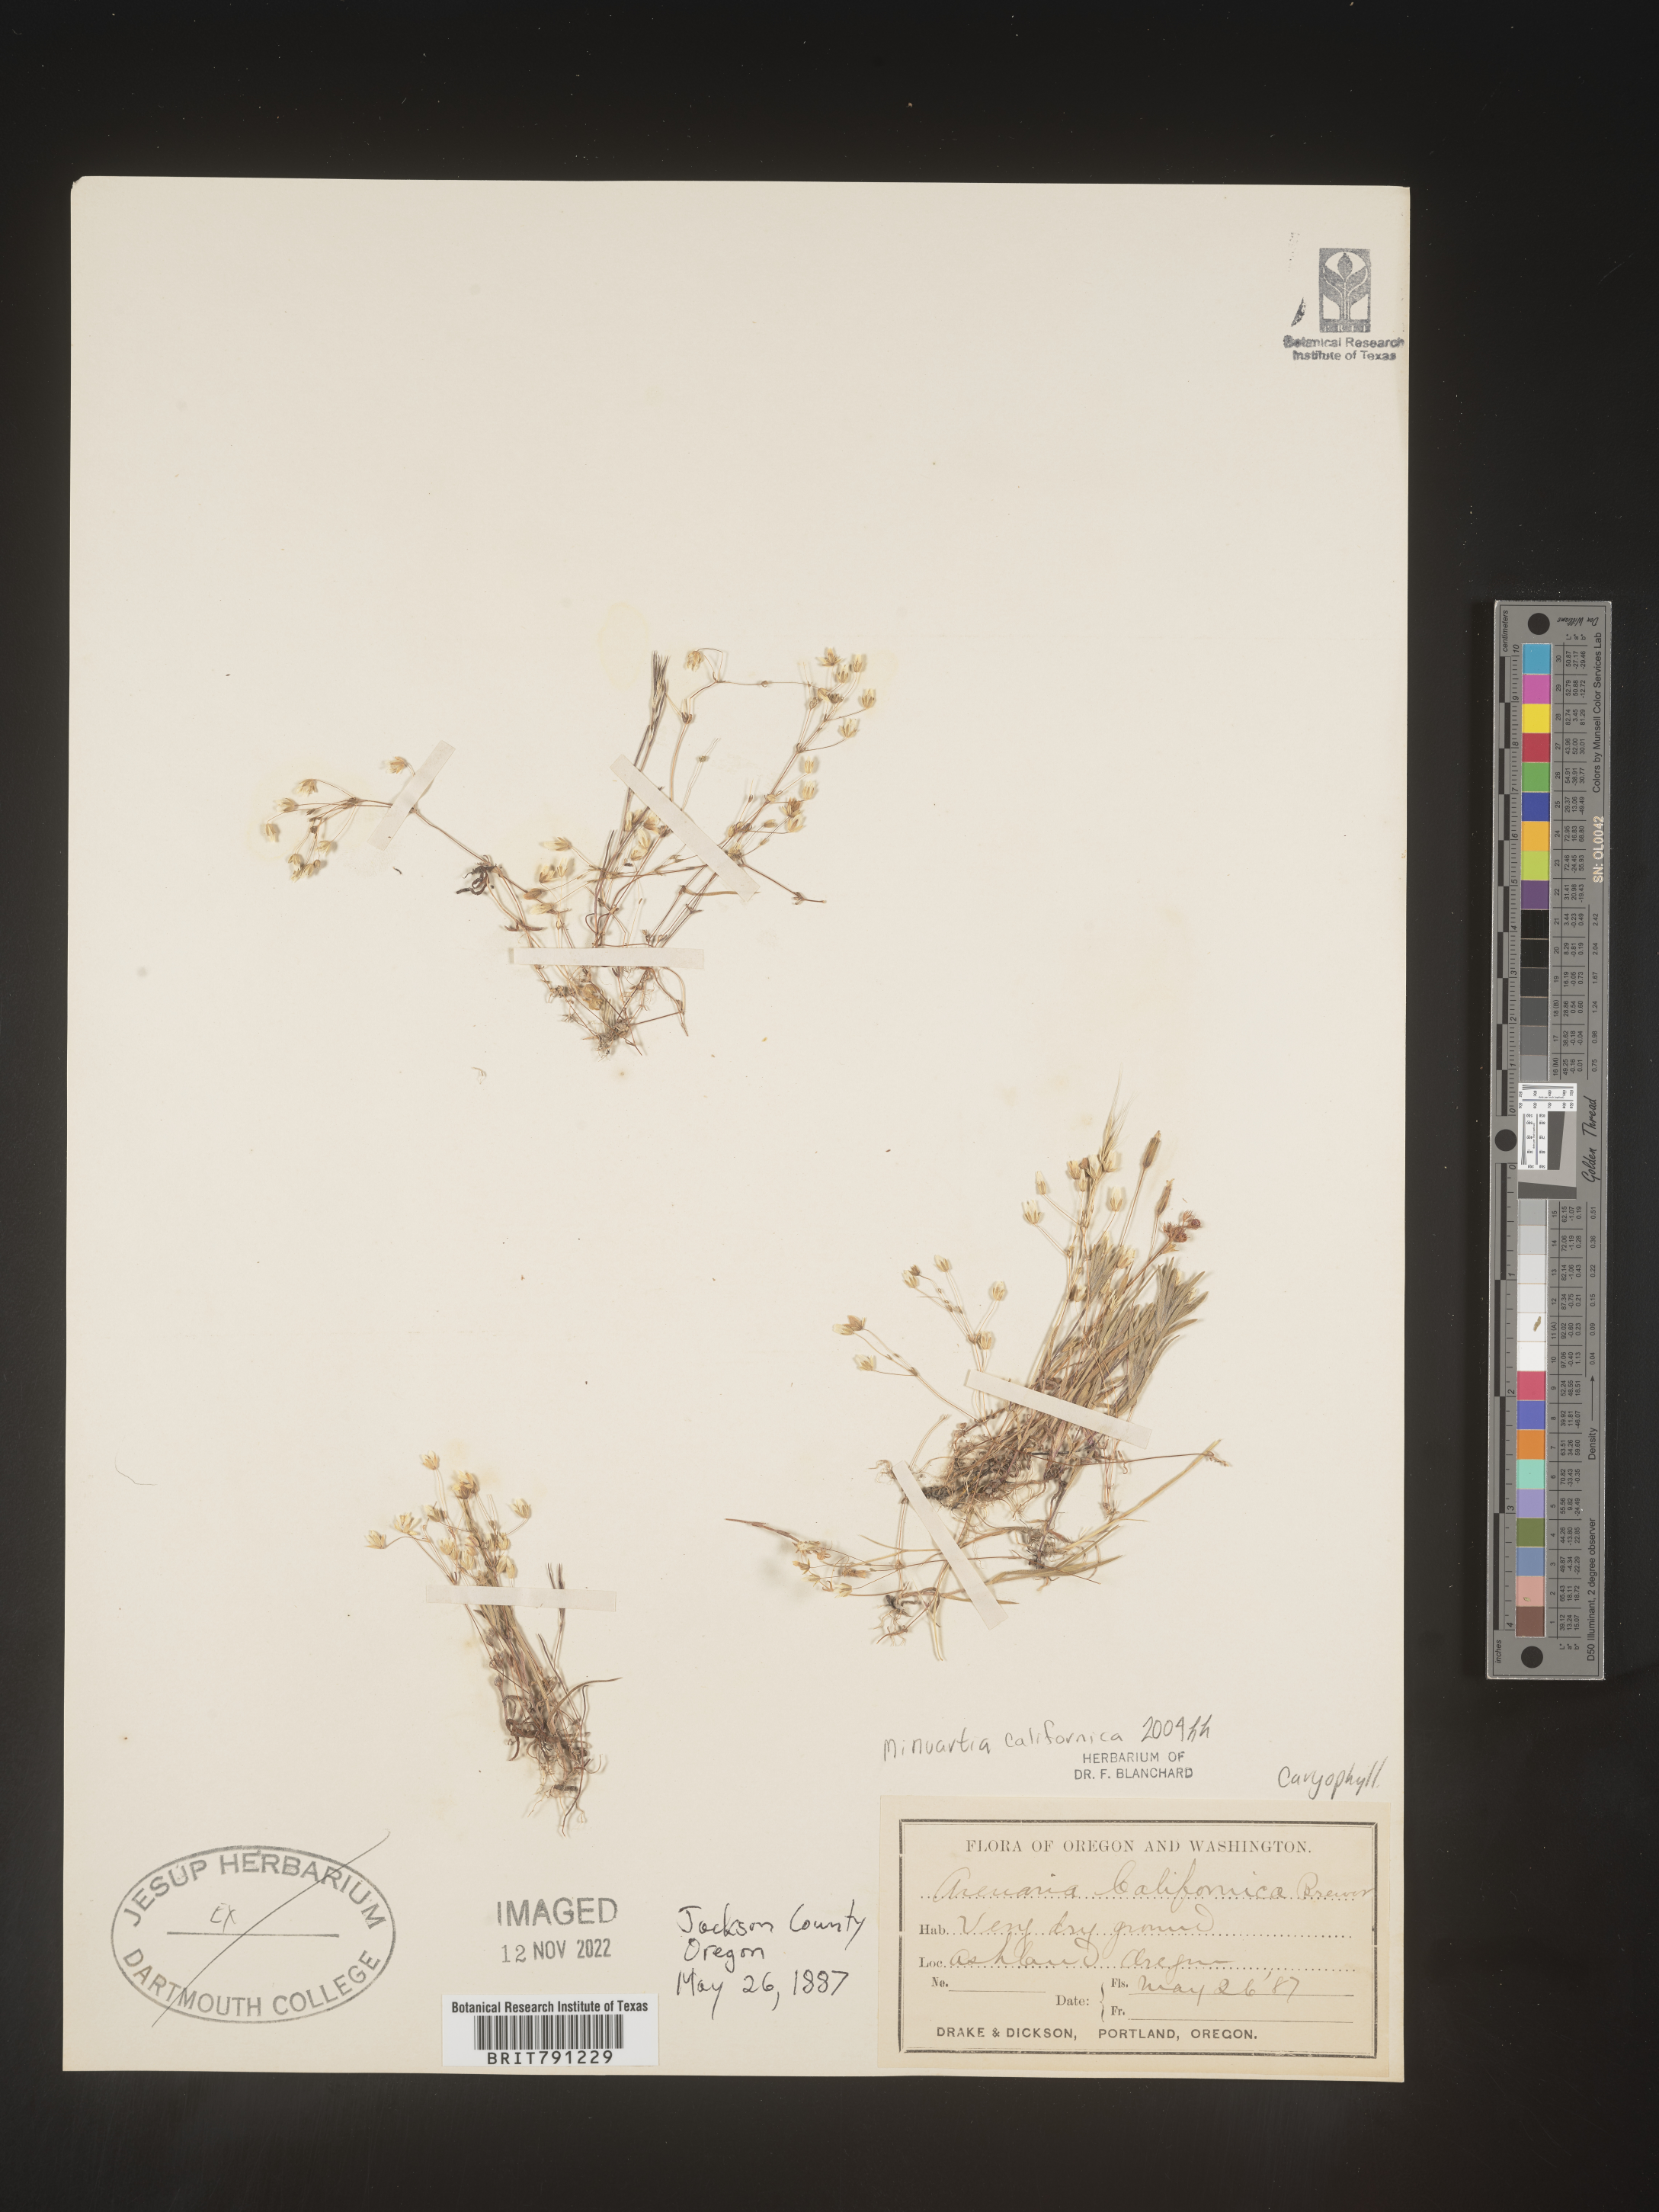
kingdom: Plantae
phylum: Tracheophyta
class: Magnoliopsida
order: Caryophyllales
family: Caryophyllaceae
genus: Sabulina
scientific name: Sabulina californica
